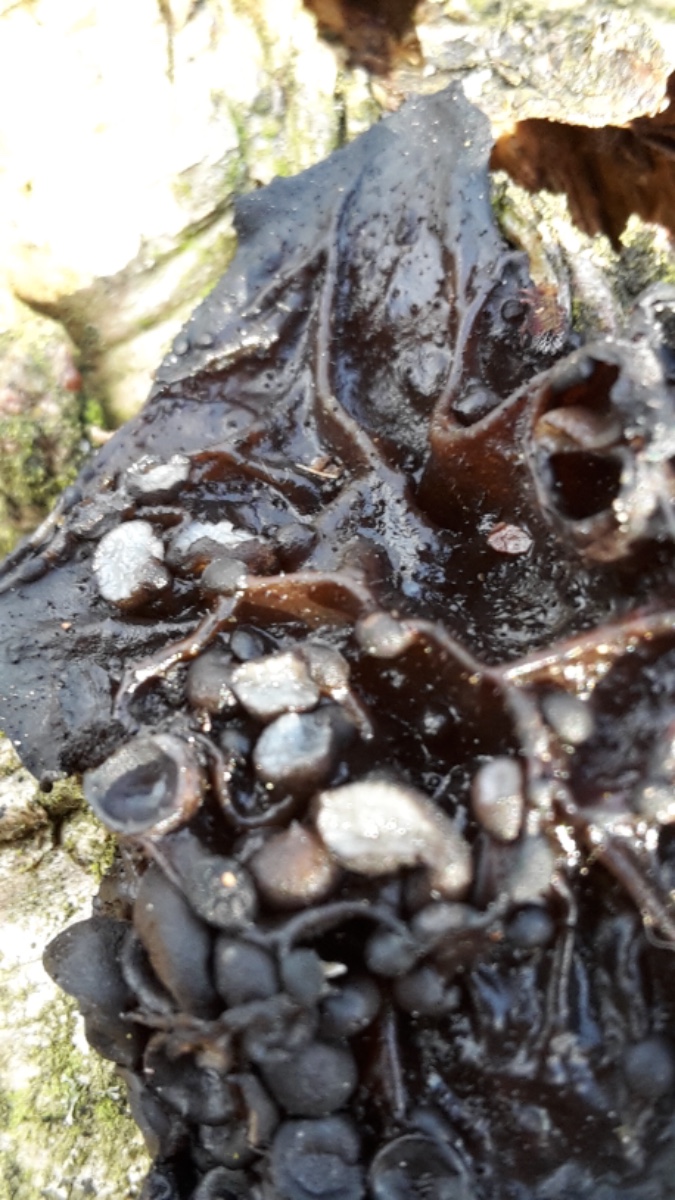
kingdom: Fungi
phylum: Basidiomycota
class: Tremellomycetes
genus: Heteromycophaga
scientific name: Heteromycophaga glandulosae
